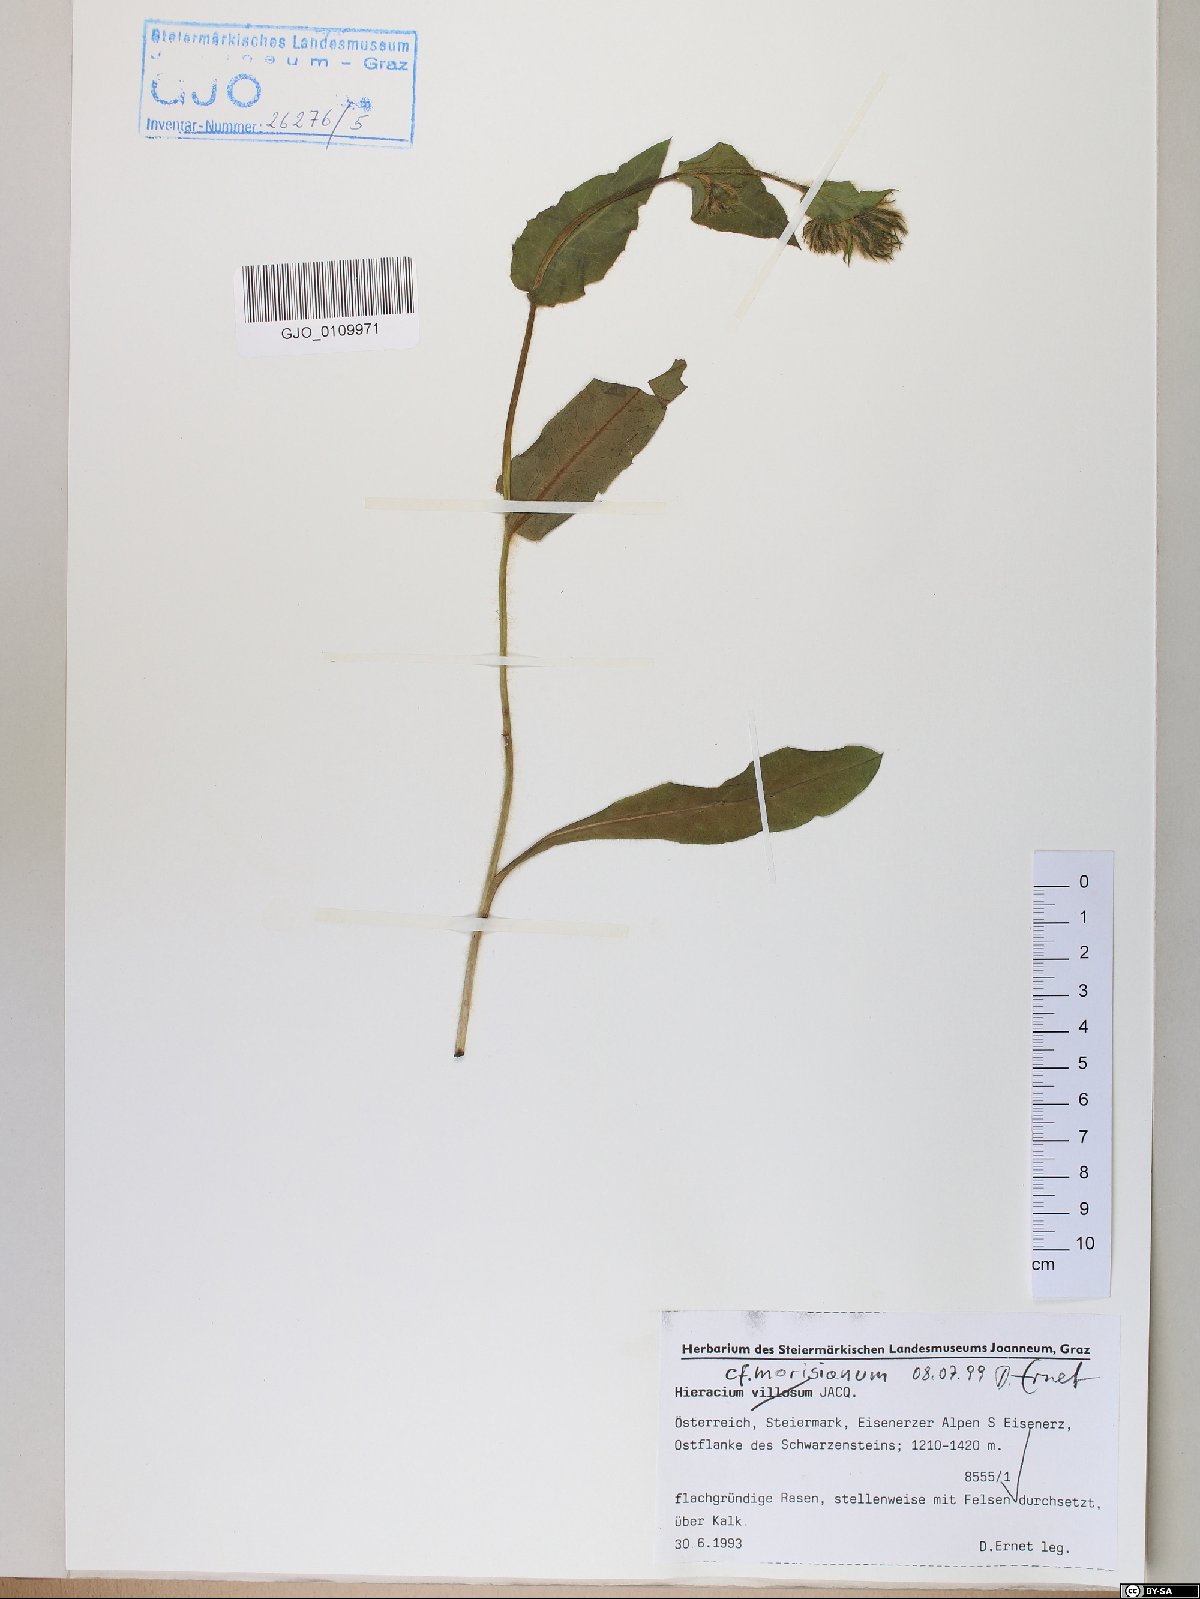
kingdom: Plantae
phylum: Tracheophyta
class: Magnoliopsida
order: Asterales
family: Asteraceae
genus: Hieracium
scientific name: Hieracium pilosum
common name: Fimbriate-pitted hawkweed
